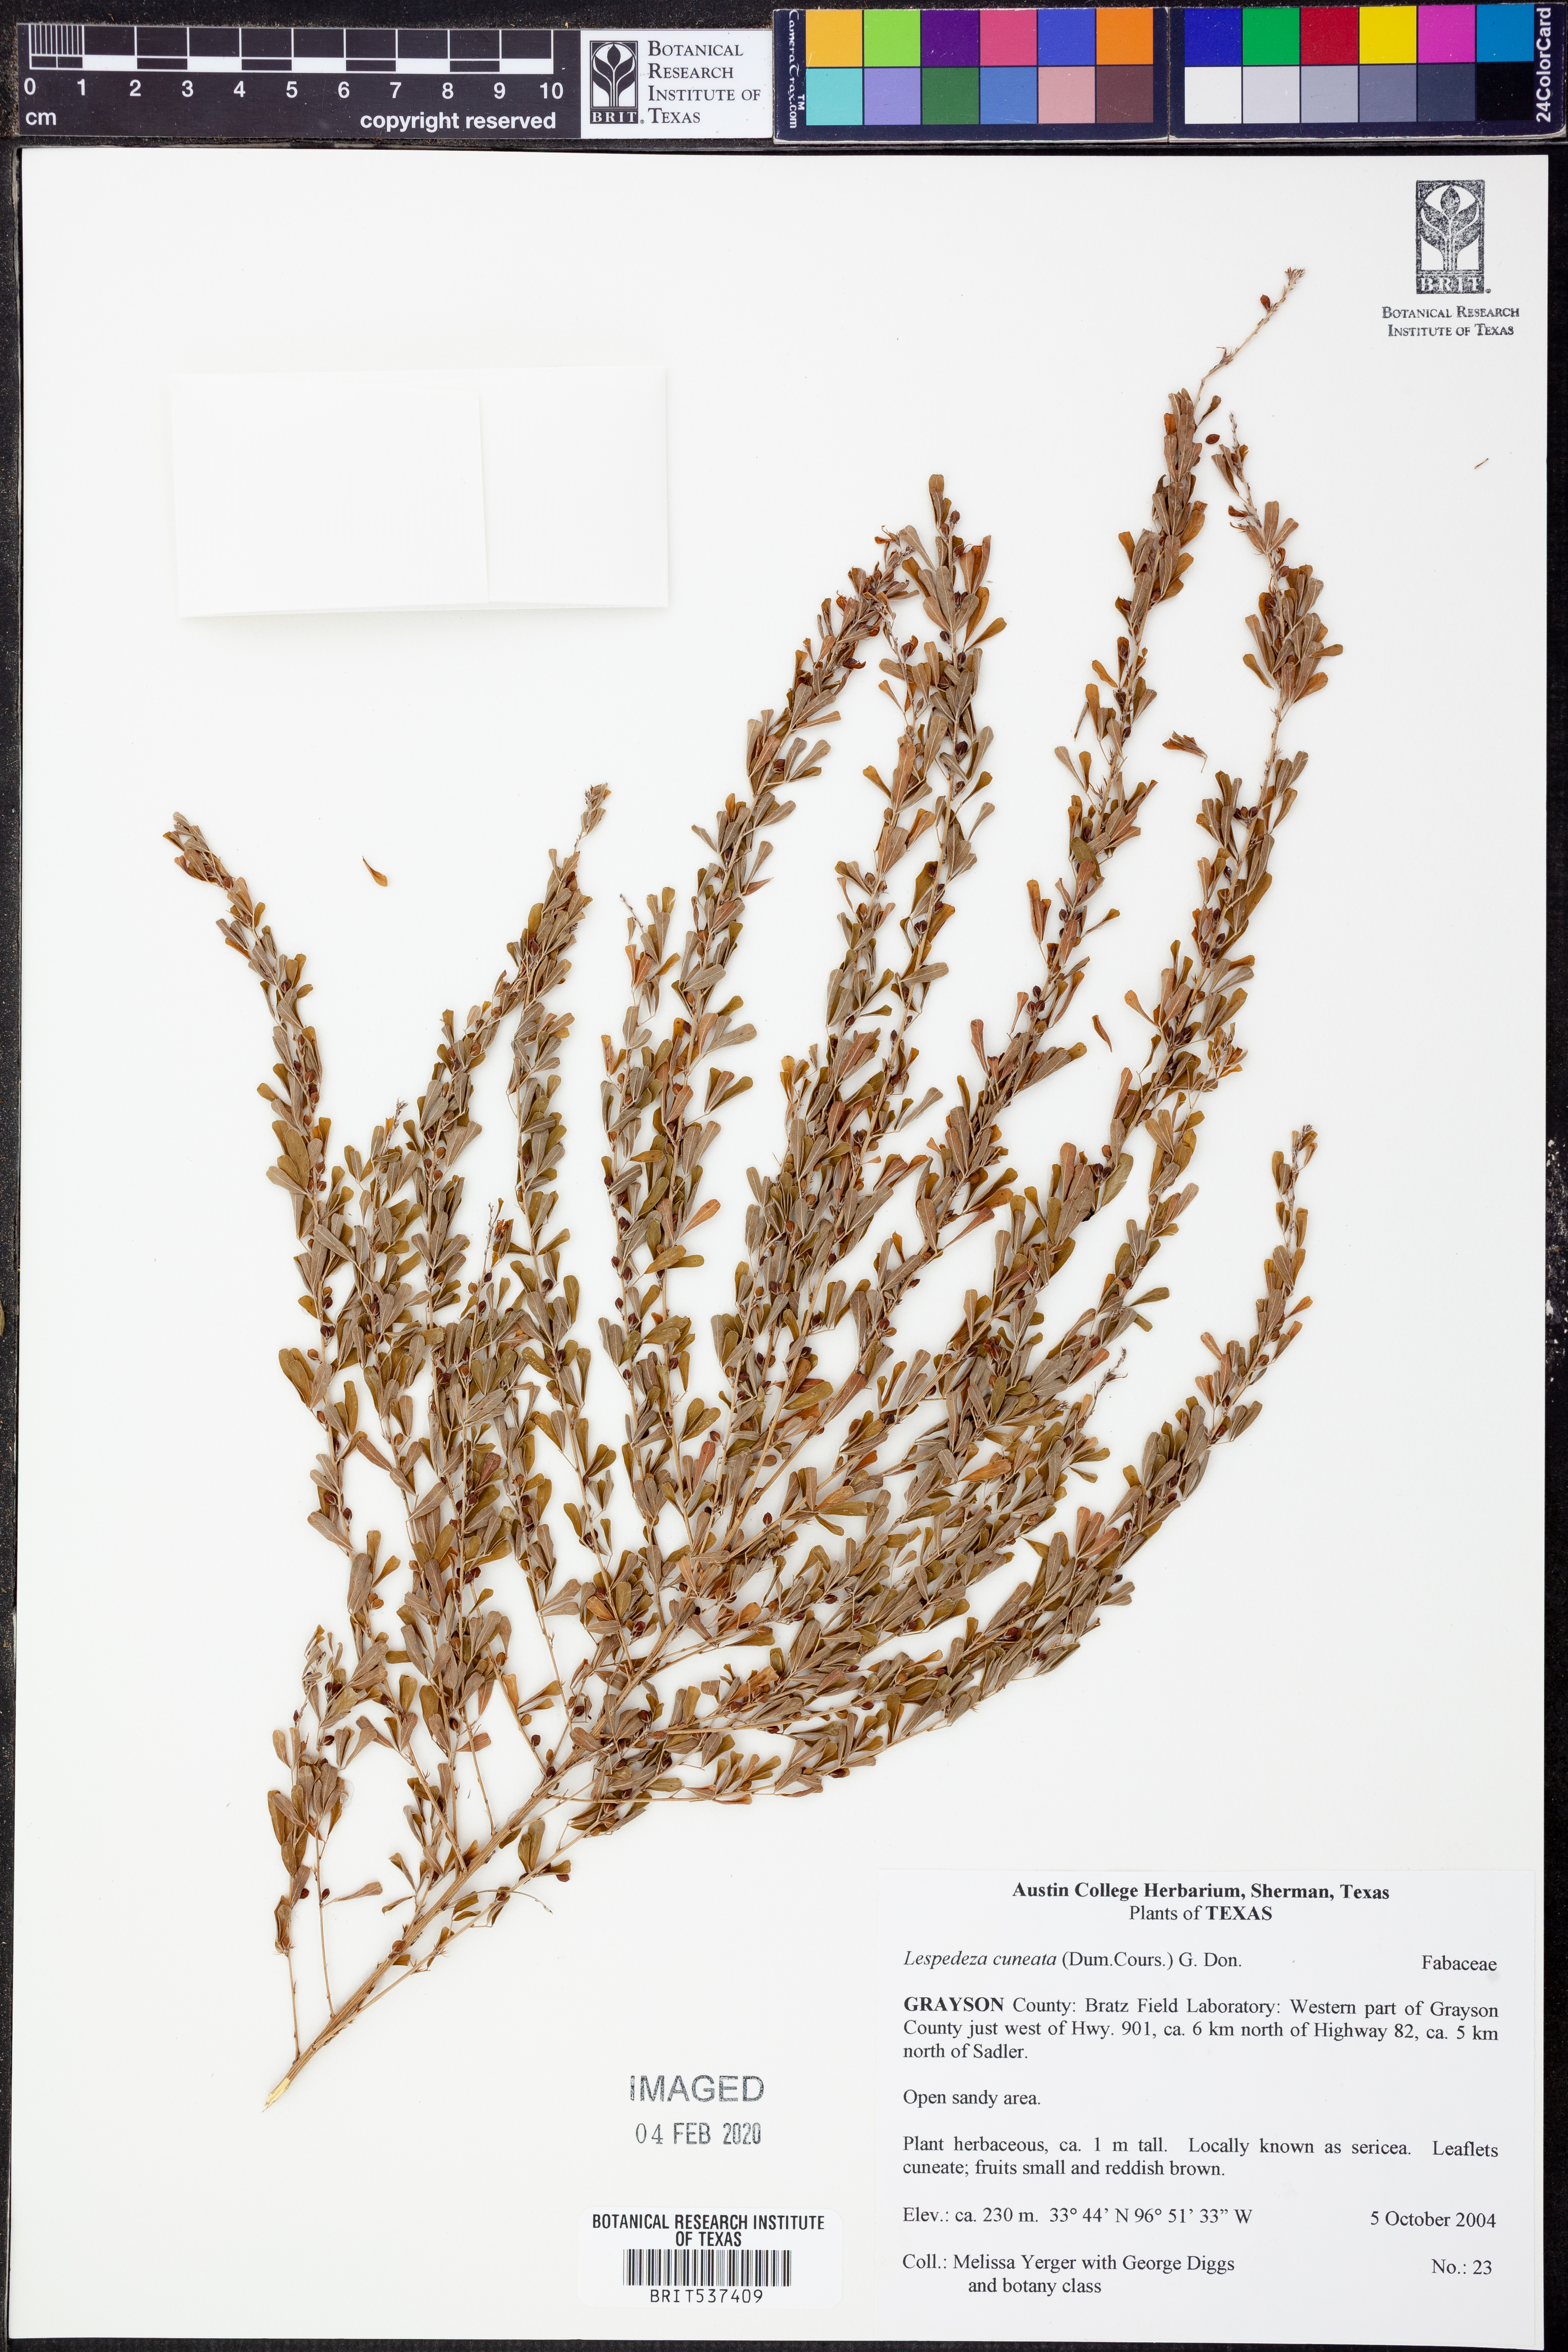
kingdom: Plantae
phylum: Tracheophyta
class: Magnoliopsida
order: Fabales
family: Fabaceae
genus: Lespedeza
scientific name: Lespedeza cuneata
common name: Chinese bush-clover
